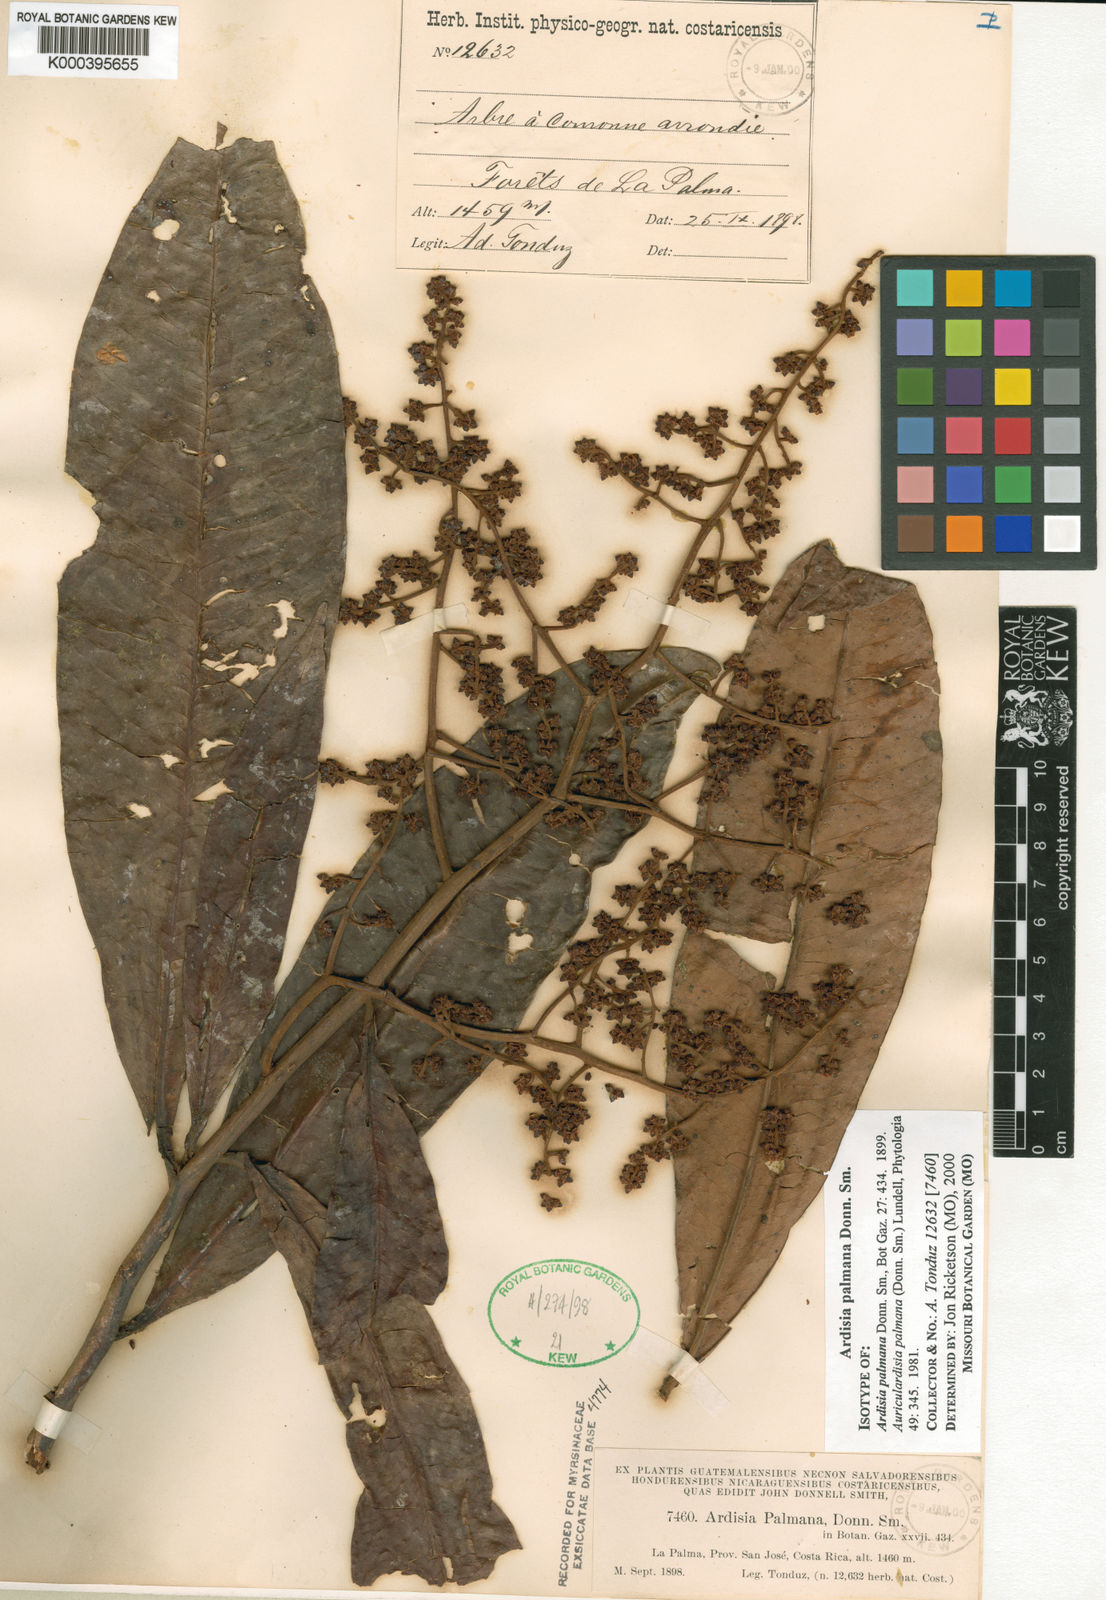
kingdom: Plantae
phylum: Tracheophyta
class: Magnoliopsida
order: Ericales
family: Primulaceae
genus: Ardisia
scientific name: Ardisia palmana
